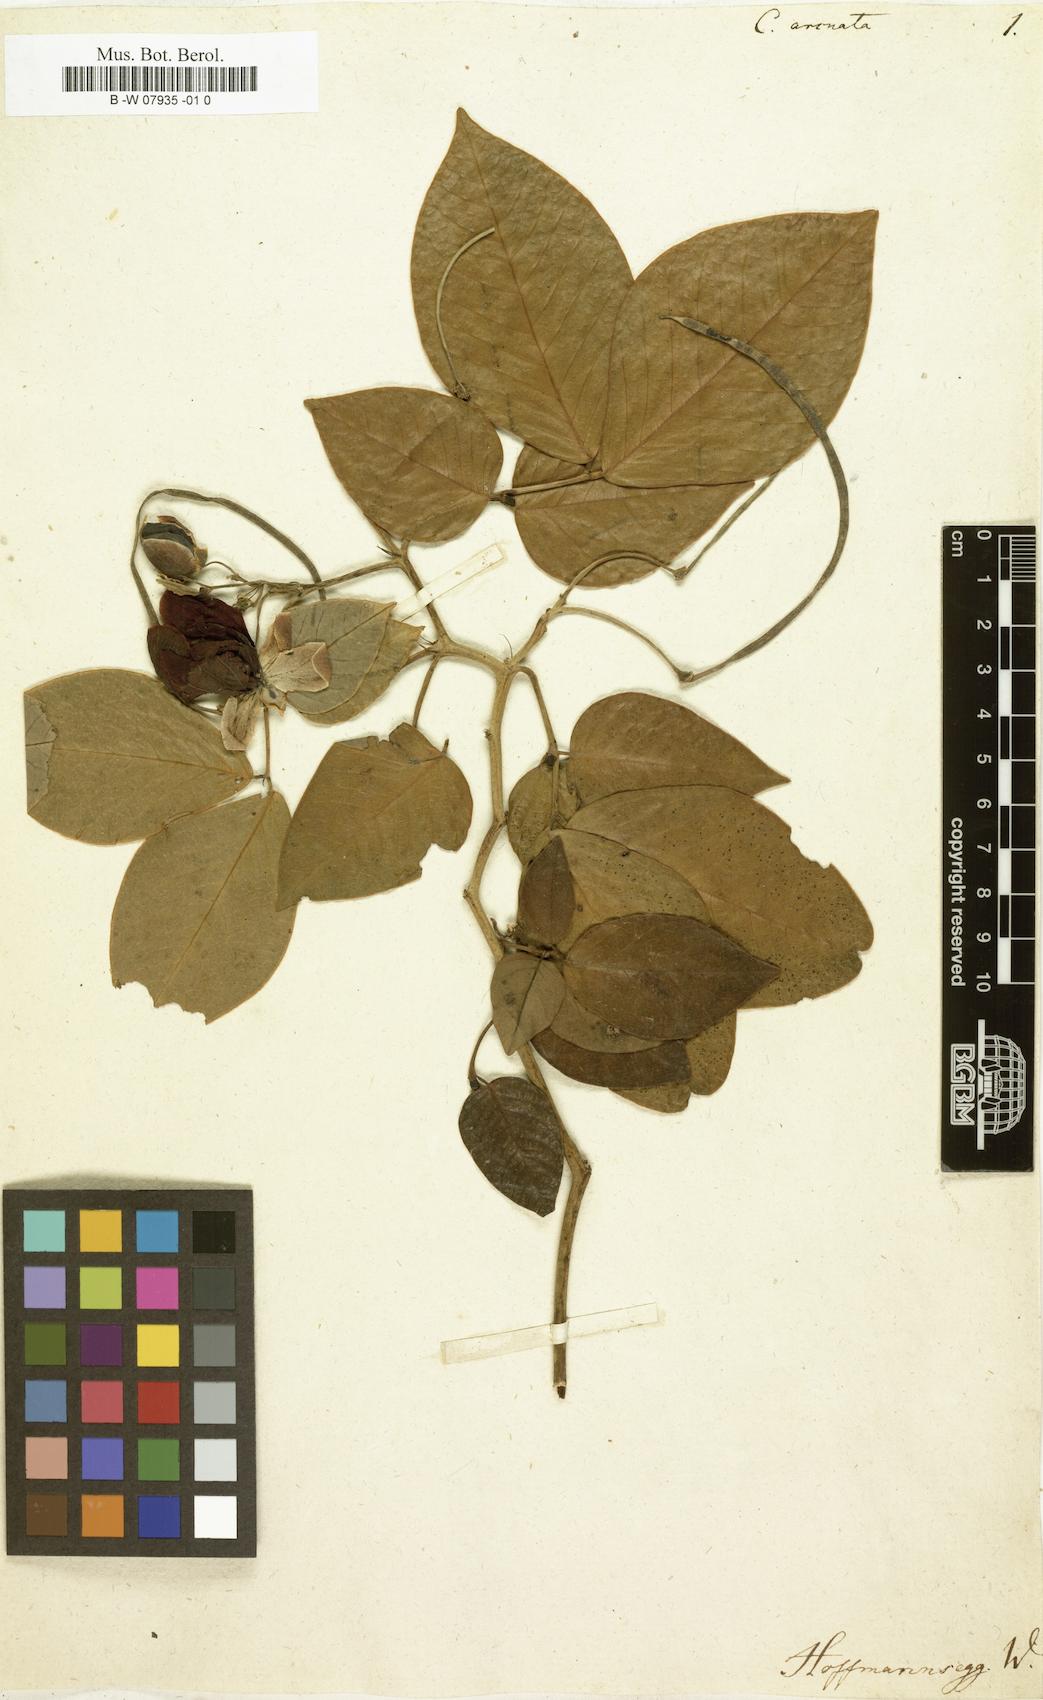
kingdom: Plantae
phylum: Tracheophyta
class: Magnoliopsida
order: Fabales
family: Fabaceae
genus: Cassia
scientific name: Cassia
